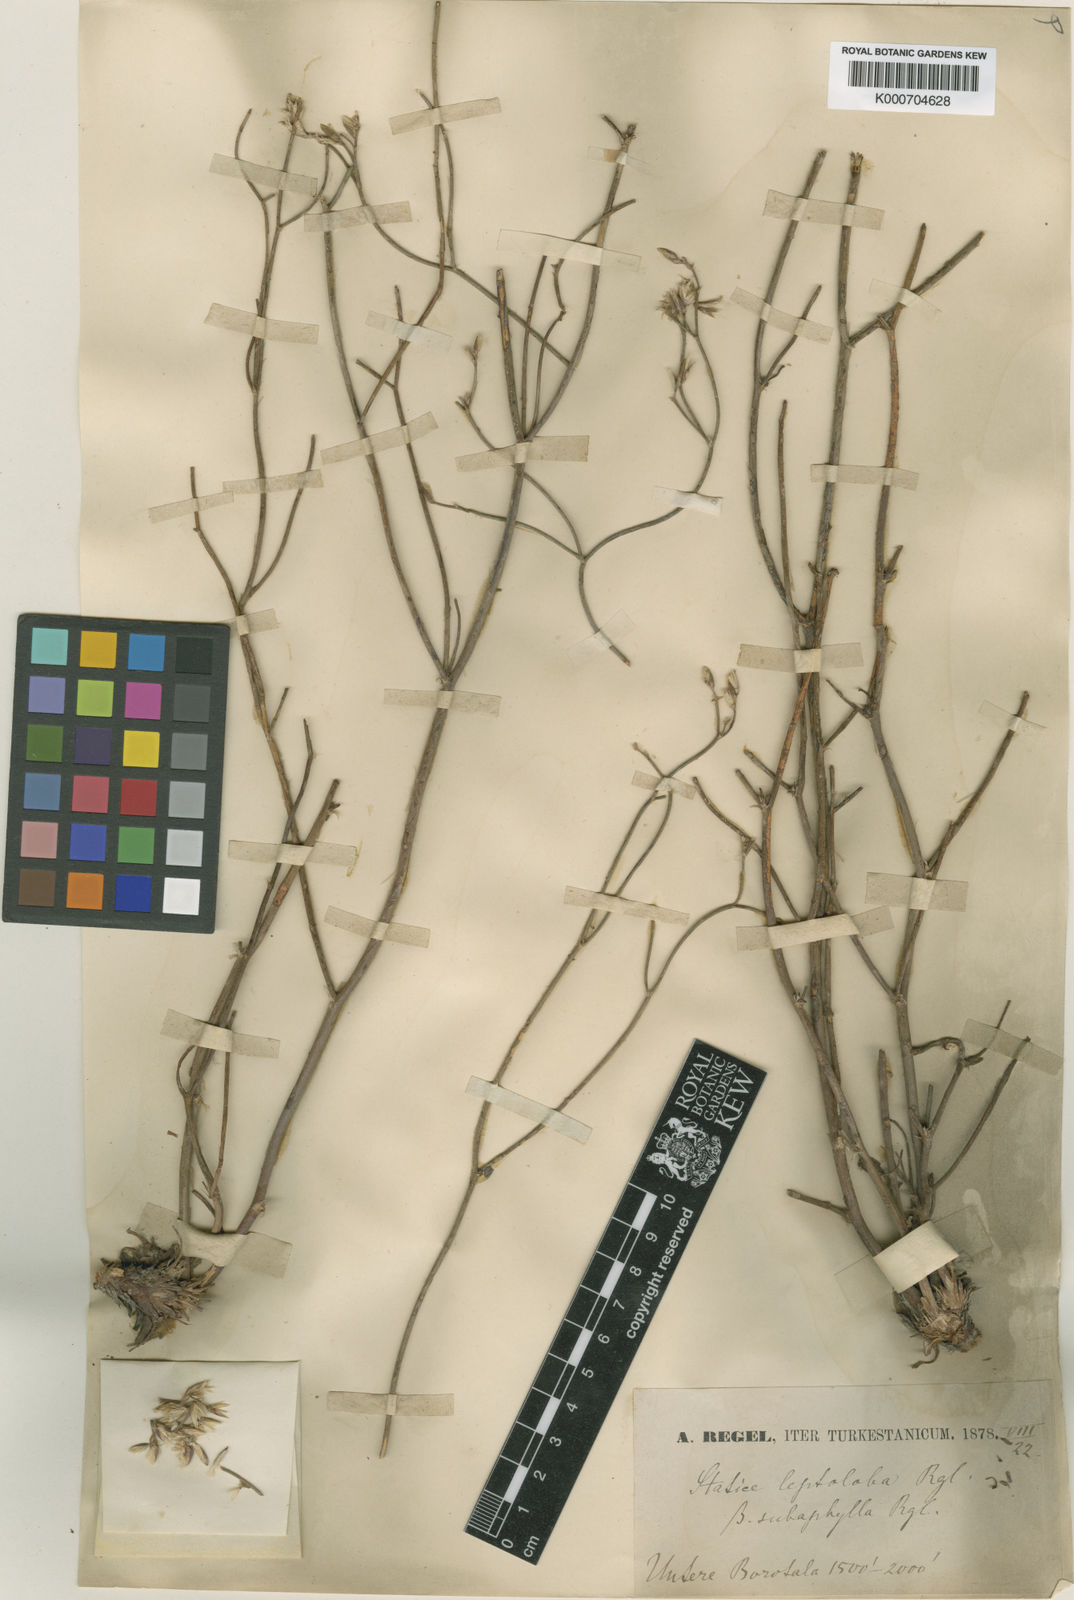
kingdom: Plantae
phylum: Tracheophyta
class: Magnoliopsida
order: Caryophyllales
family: Plumbaginaceae
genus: Limonium
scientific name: Limonium leptolobum
